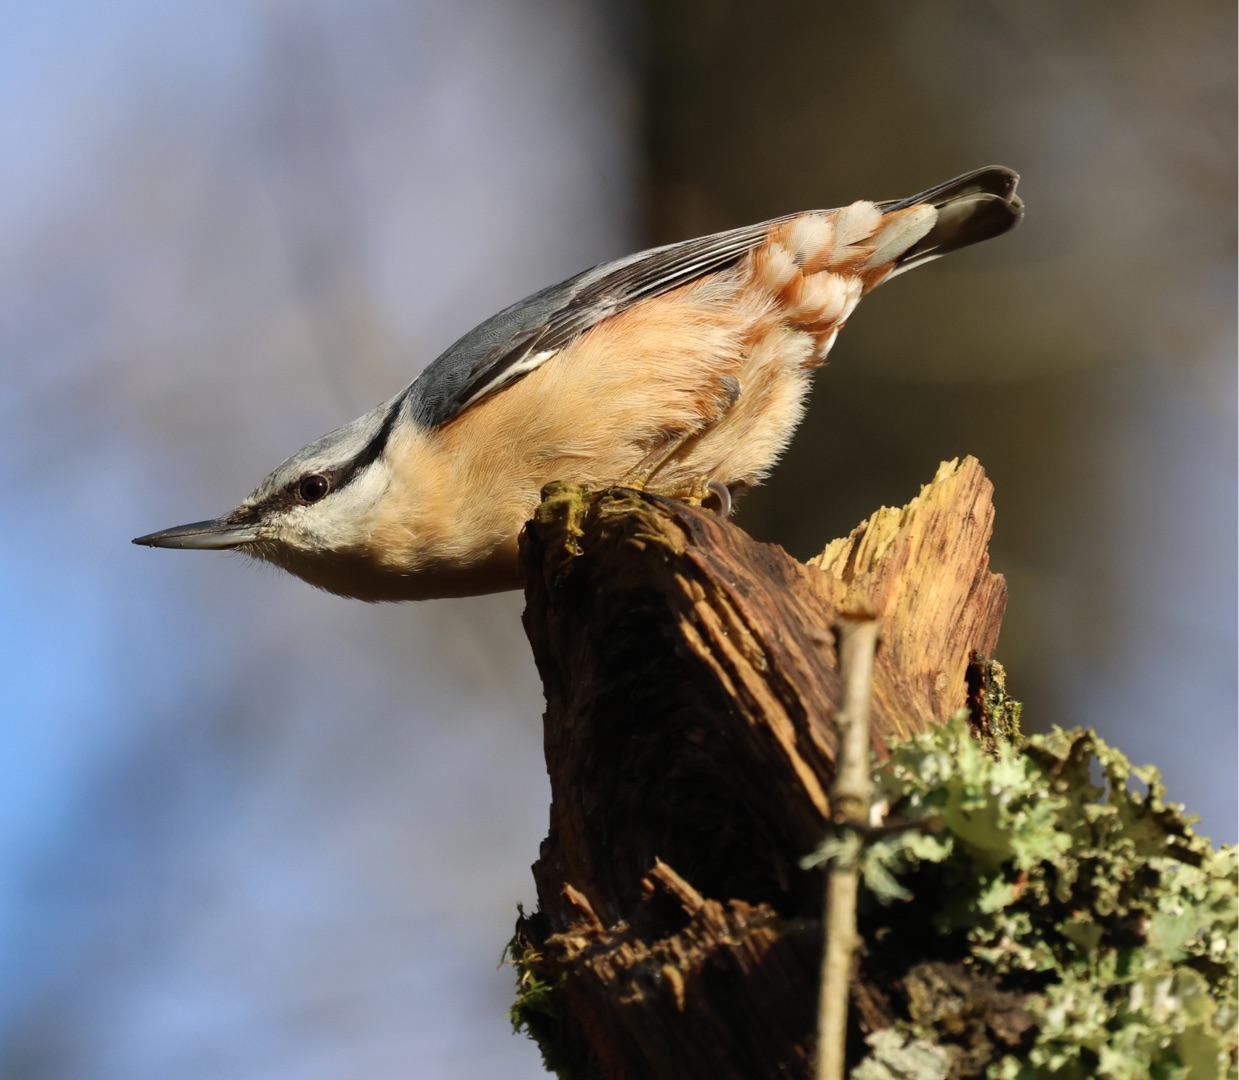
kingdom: Animalia
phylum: Chordata
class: Aves
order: Passeriformes
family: Sittidae
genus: Sitta
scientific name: Sitta europaea
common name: Spætmejse
